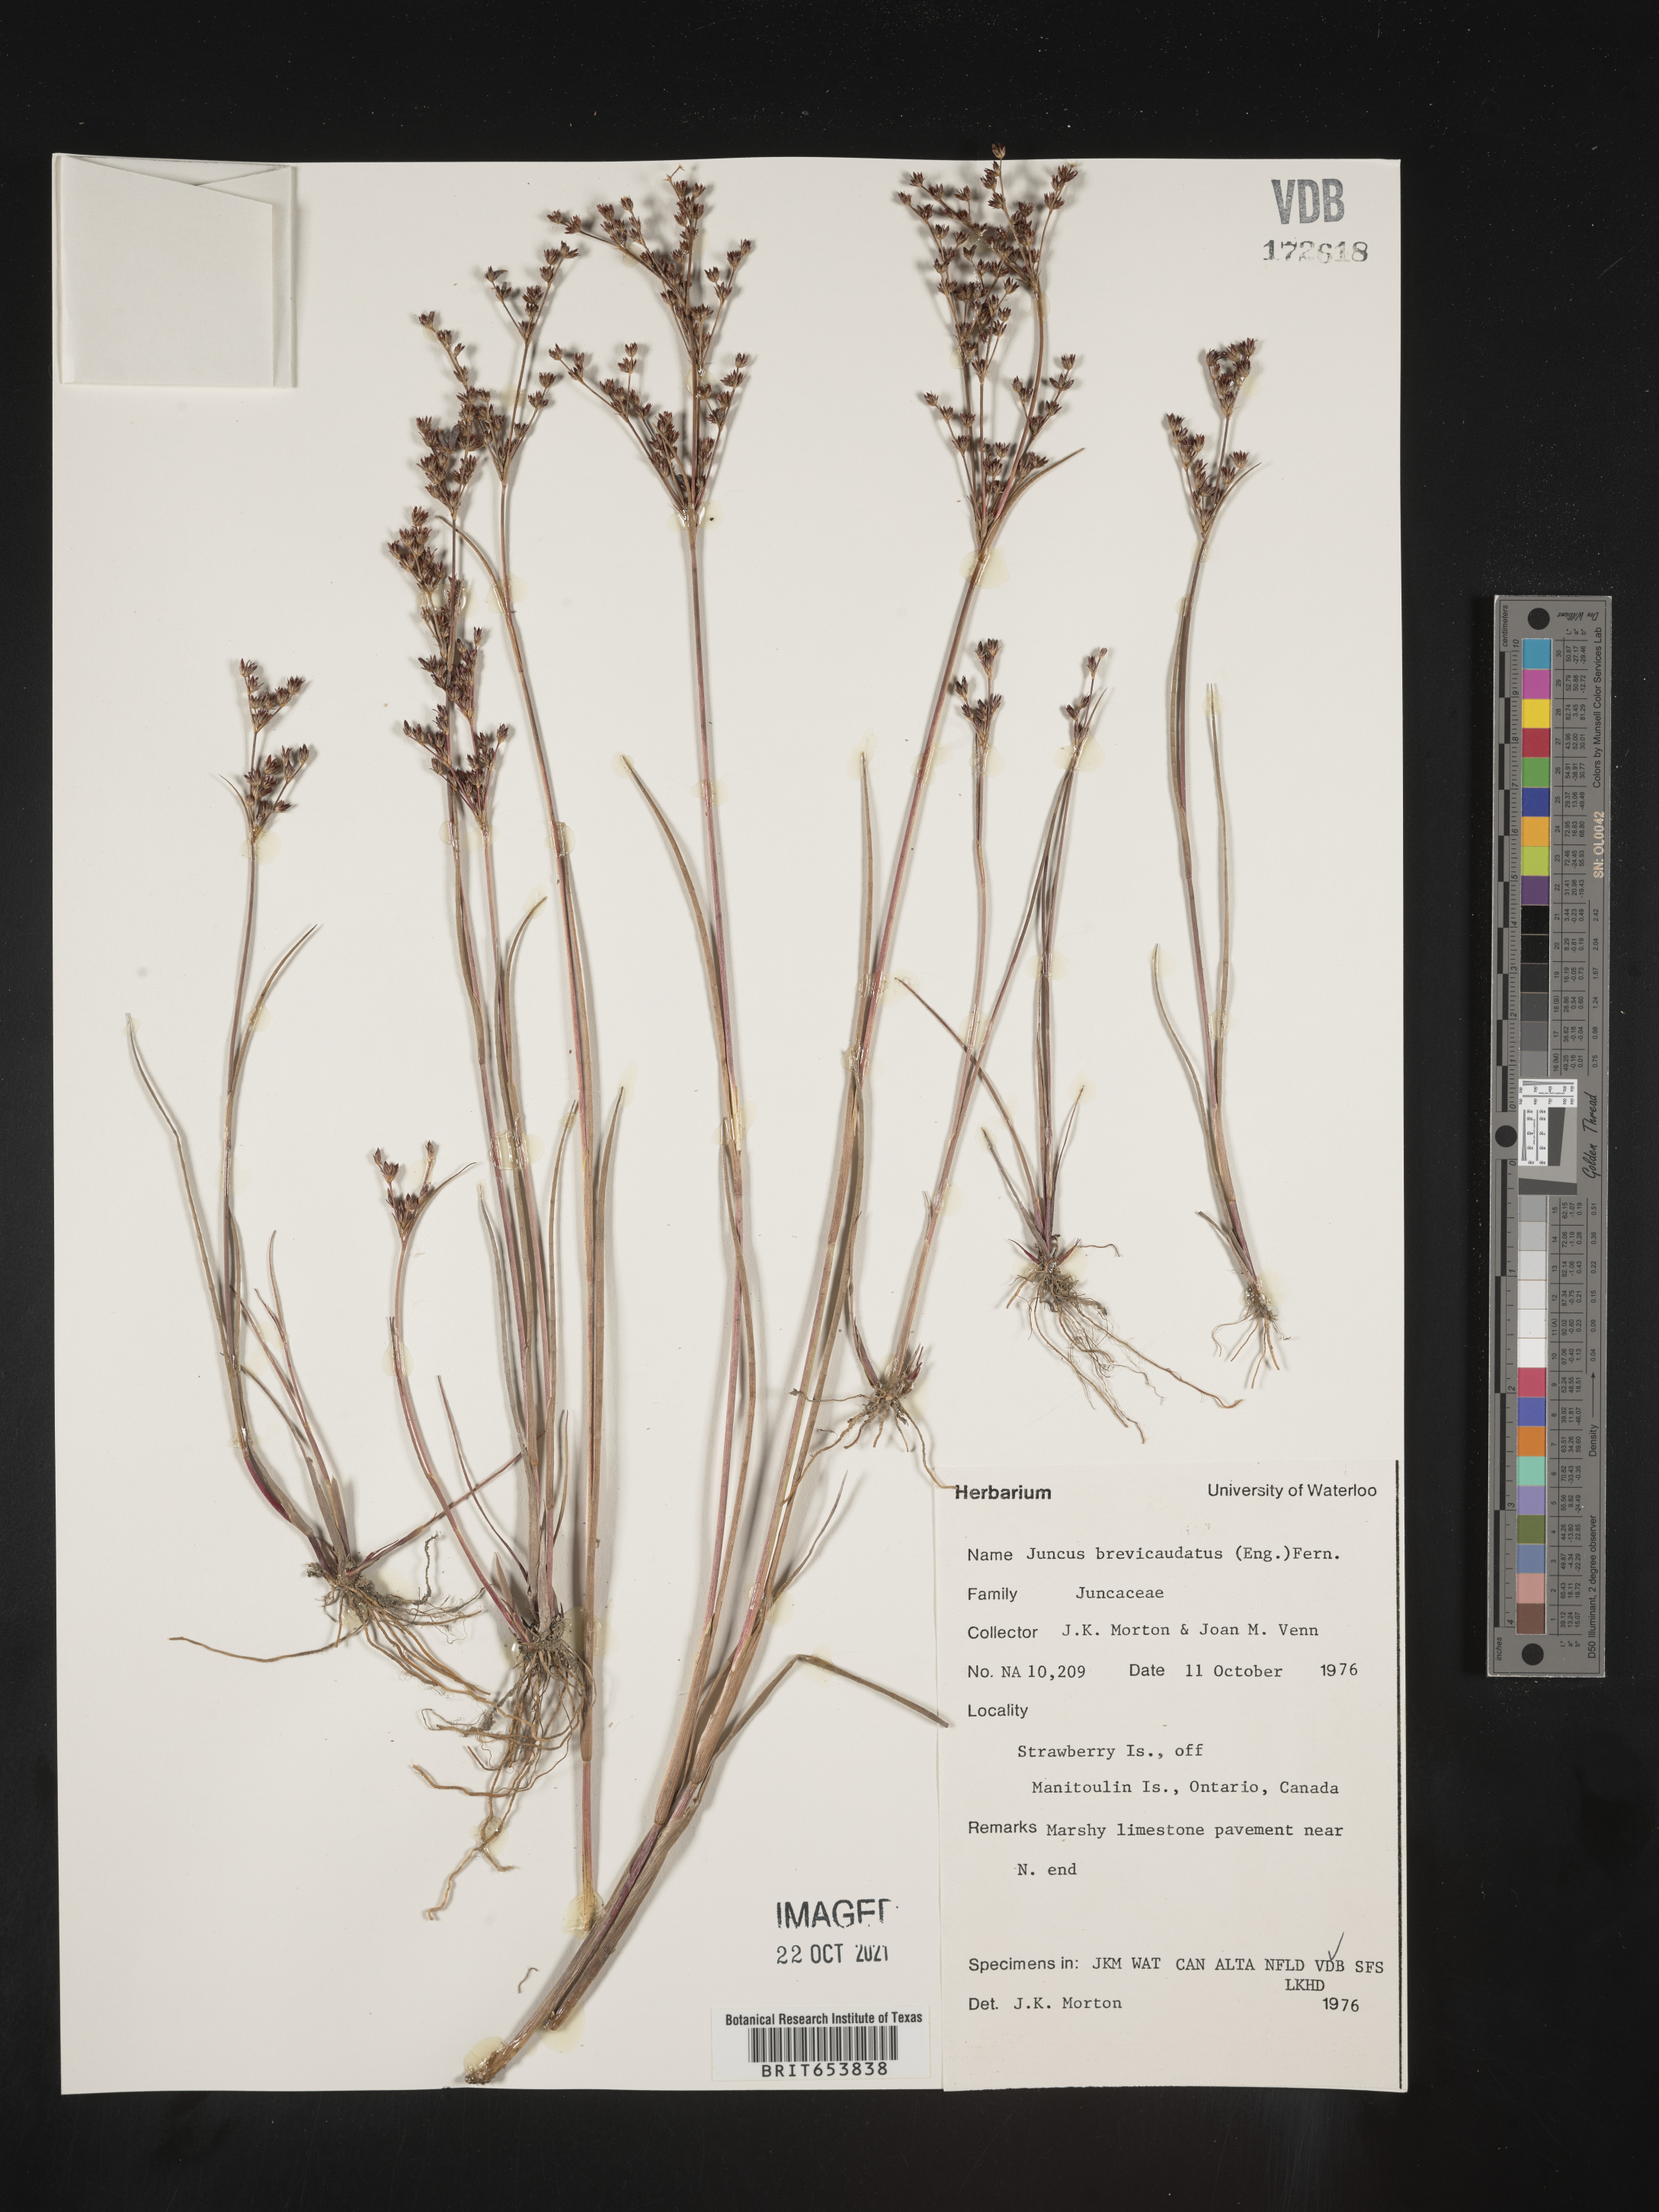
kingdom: Plantae
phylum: Tracheophyta
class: Liliopsida
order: Poales
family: Juncaceae
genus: Juncus
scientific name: Juncus brevicaudatus
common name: Narrow-panicle rush
